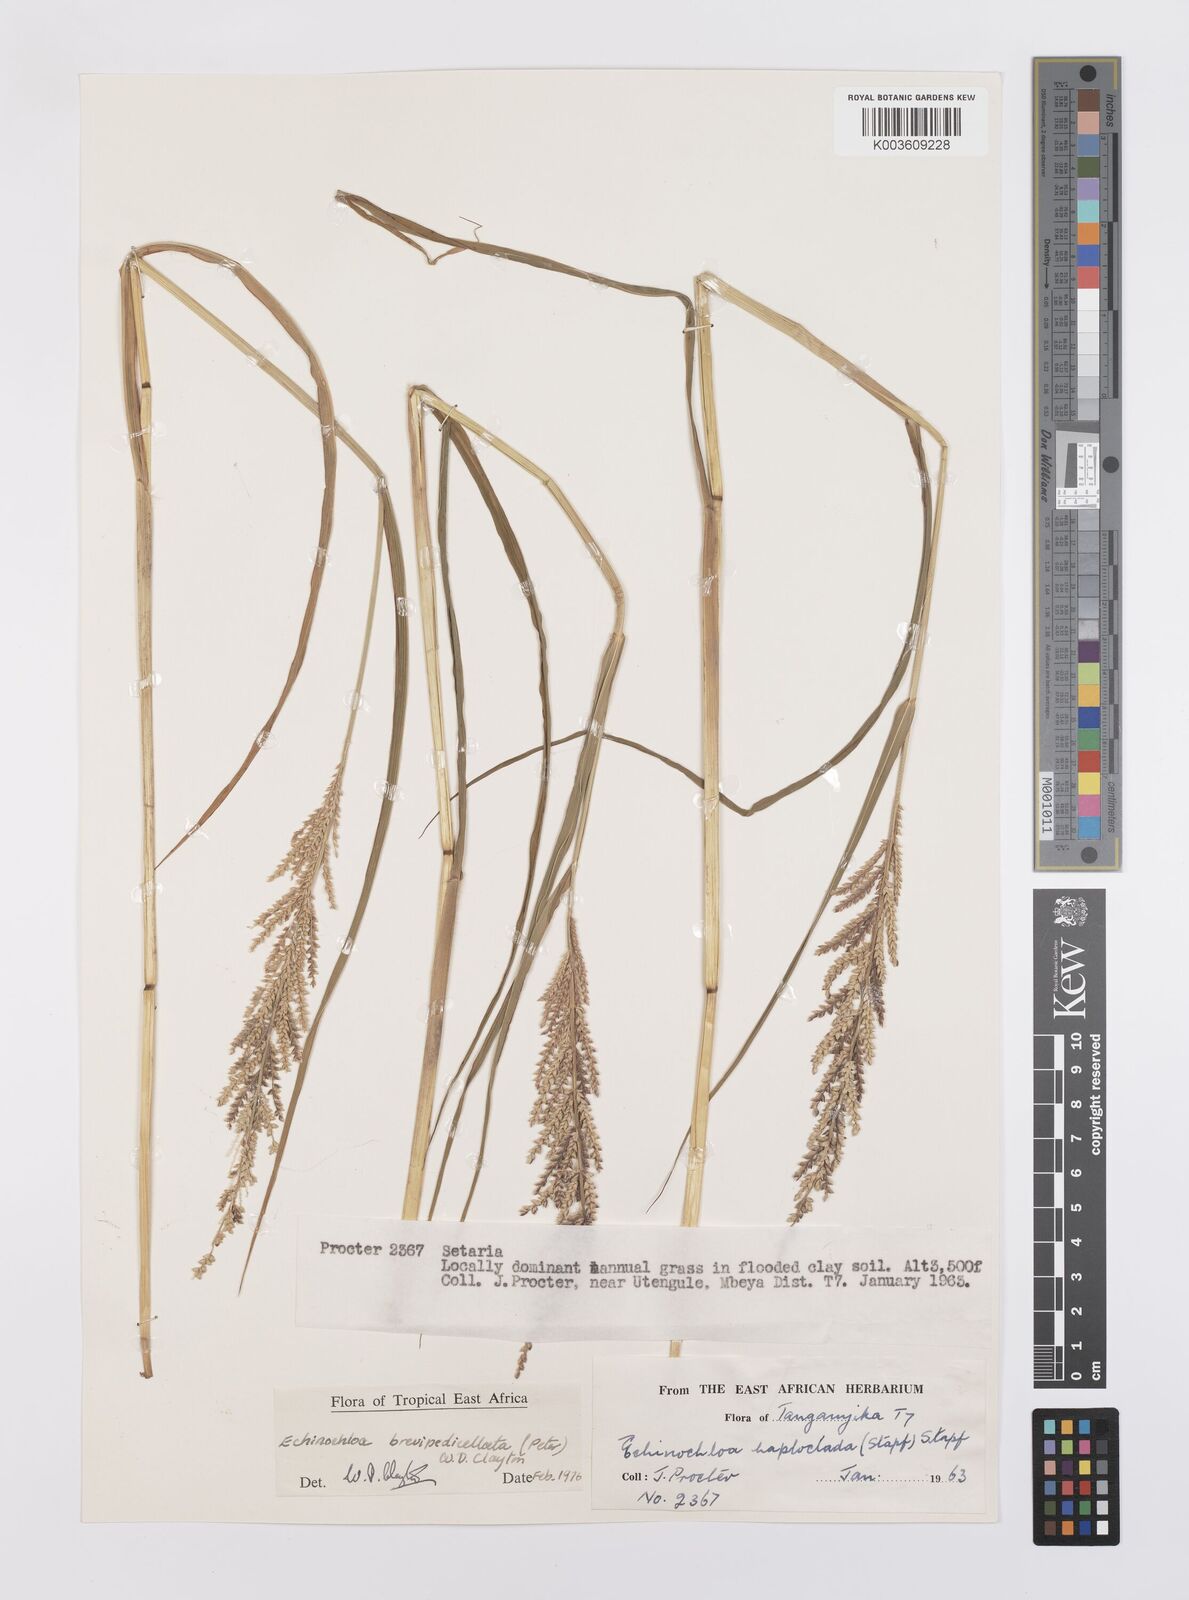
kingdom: Plantae
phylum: Tracheophyta
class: Liliopsida
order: Poales
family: Poaceae
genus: Echinochloa
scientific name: Echinochloa brevipedicellata
